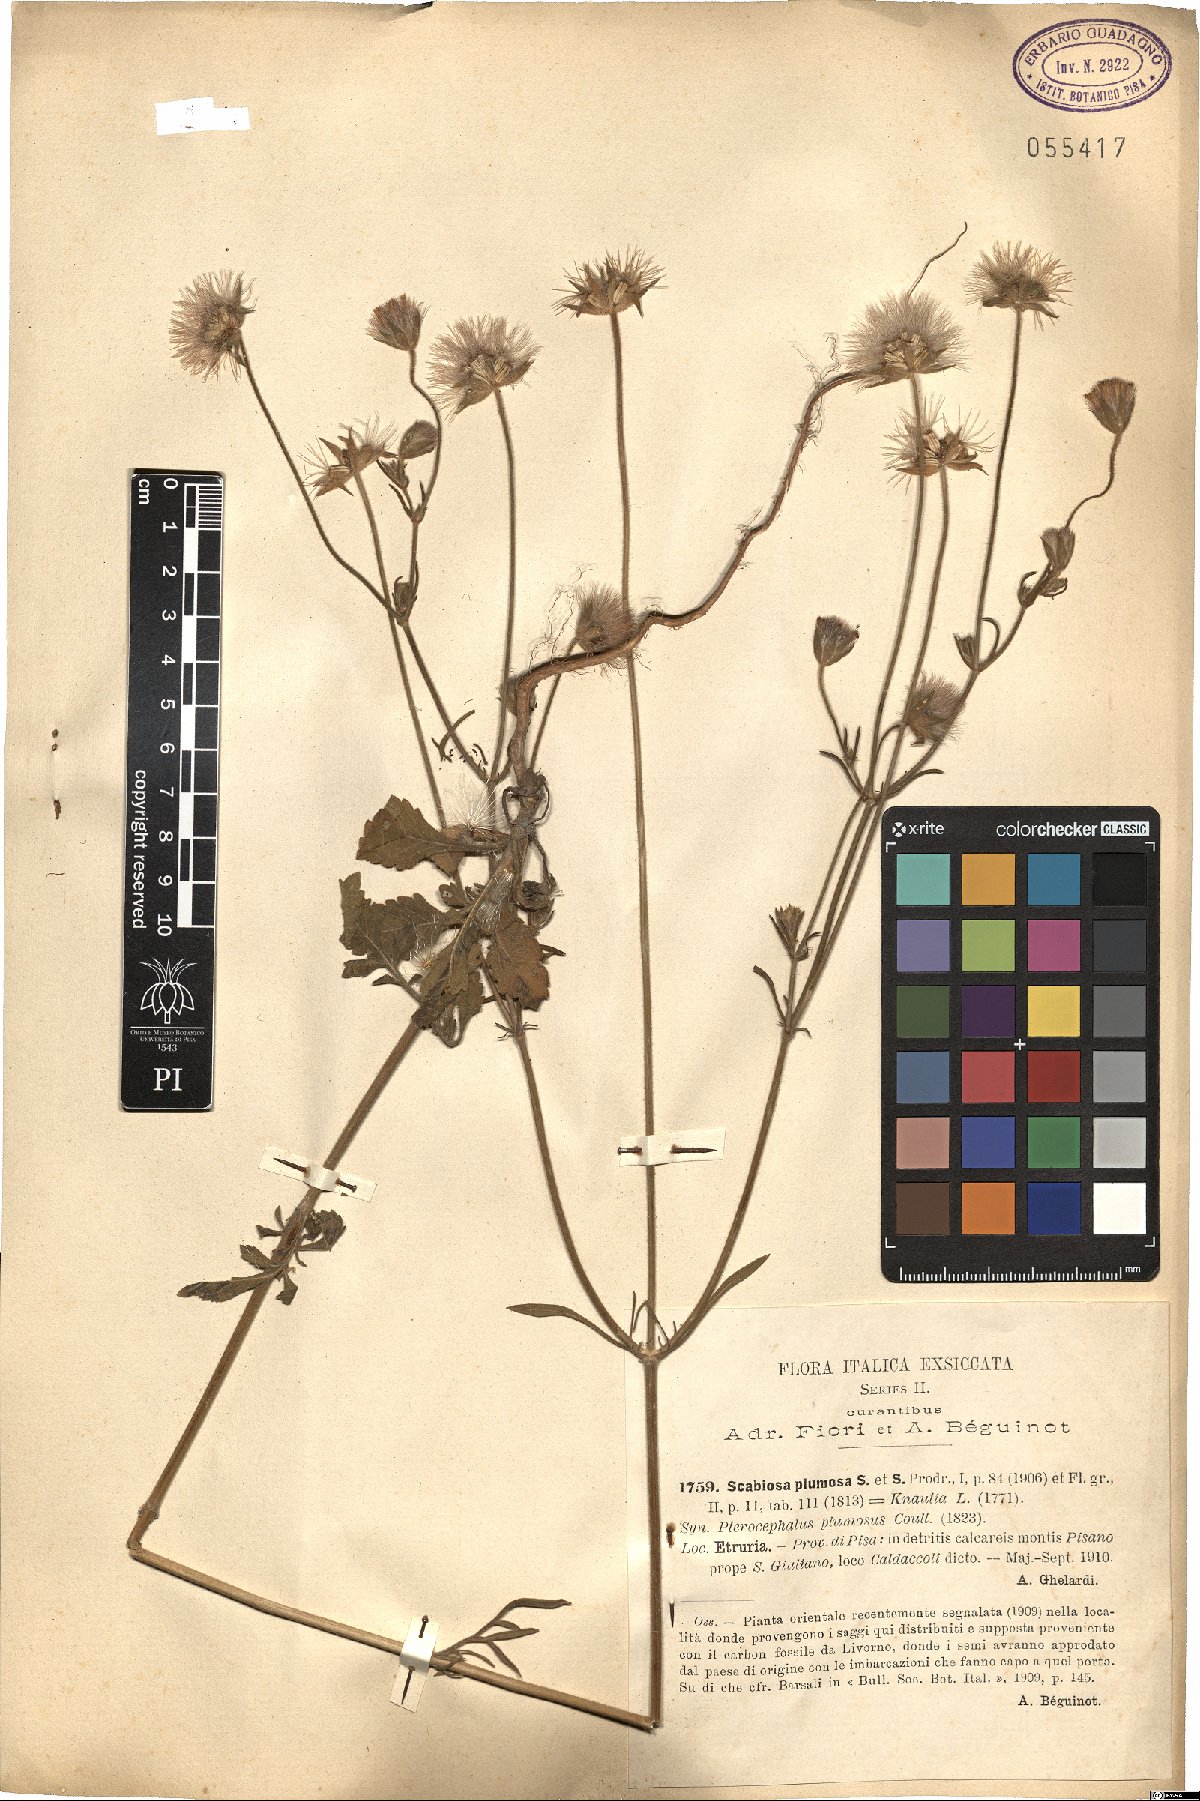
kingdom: Plantae
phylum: Tracheophyta
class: Magnoliopsida
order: Dipsacales
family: Caprifoliaceae
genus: Pycnocomon
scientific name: Pycnocomon intermedium
